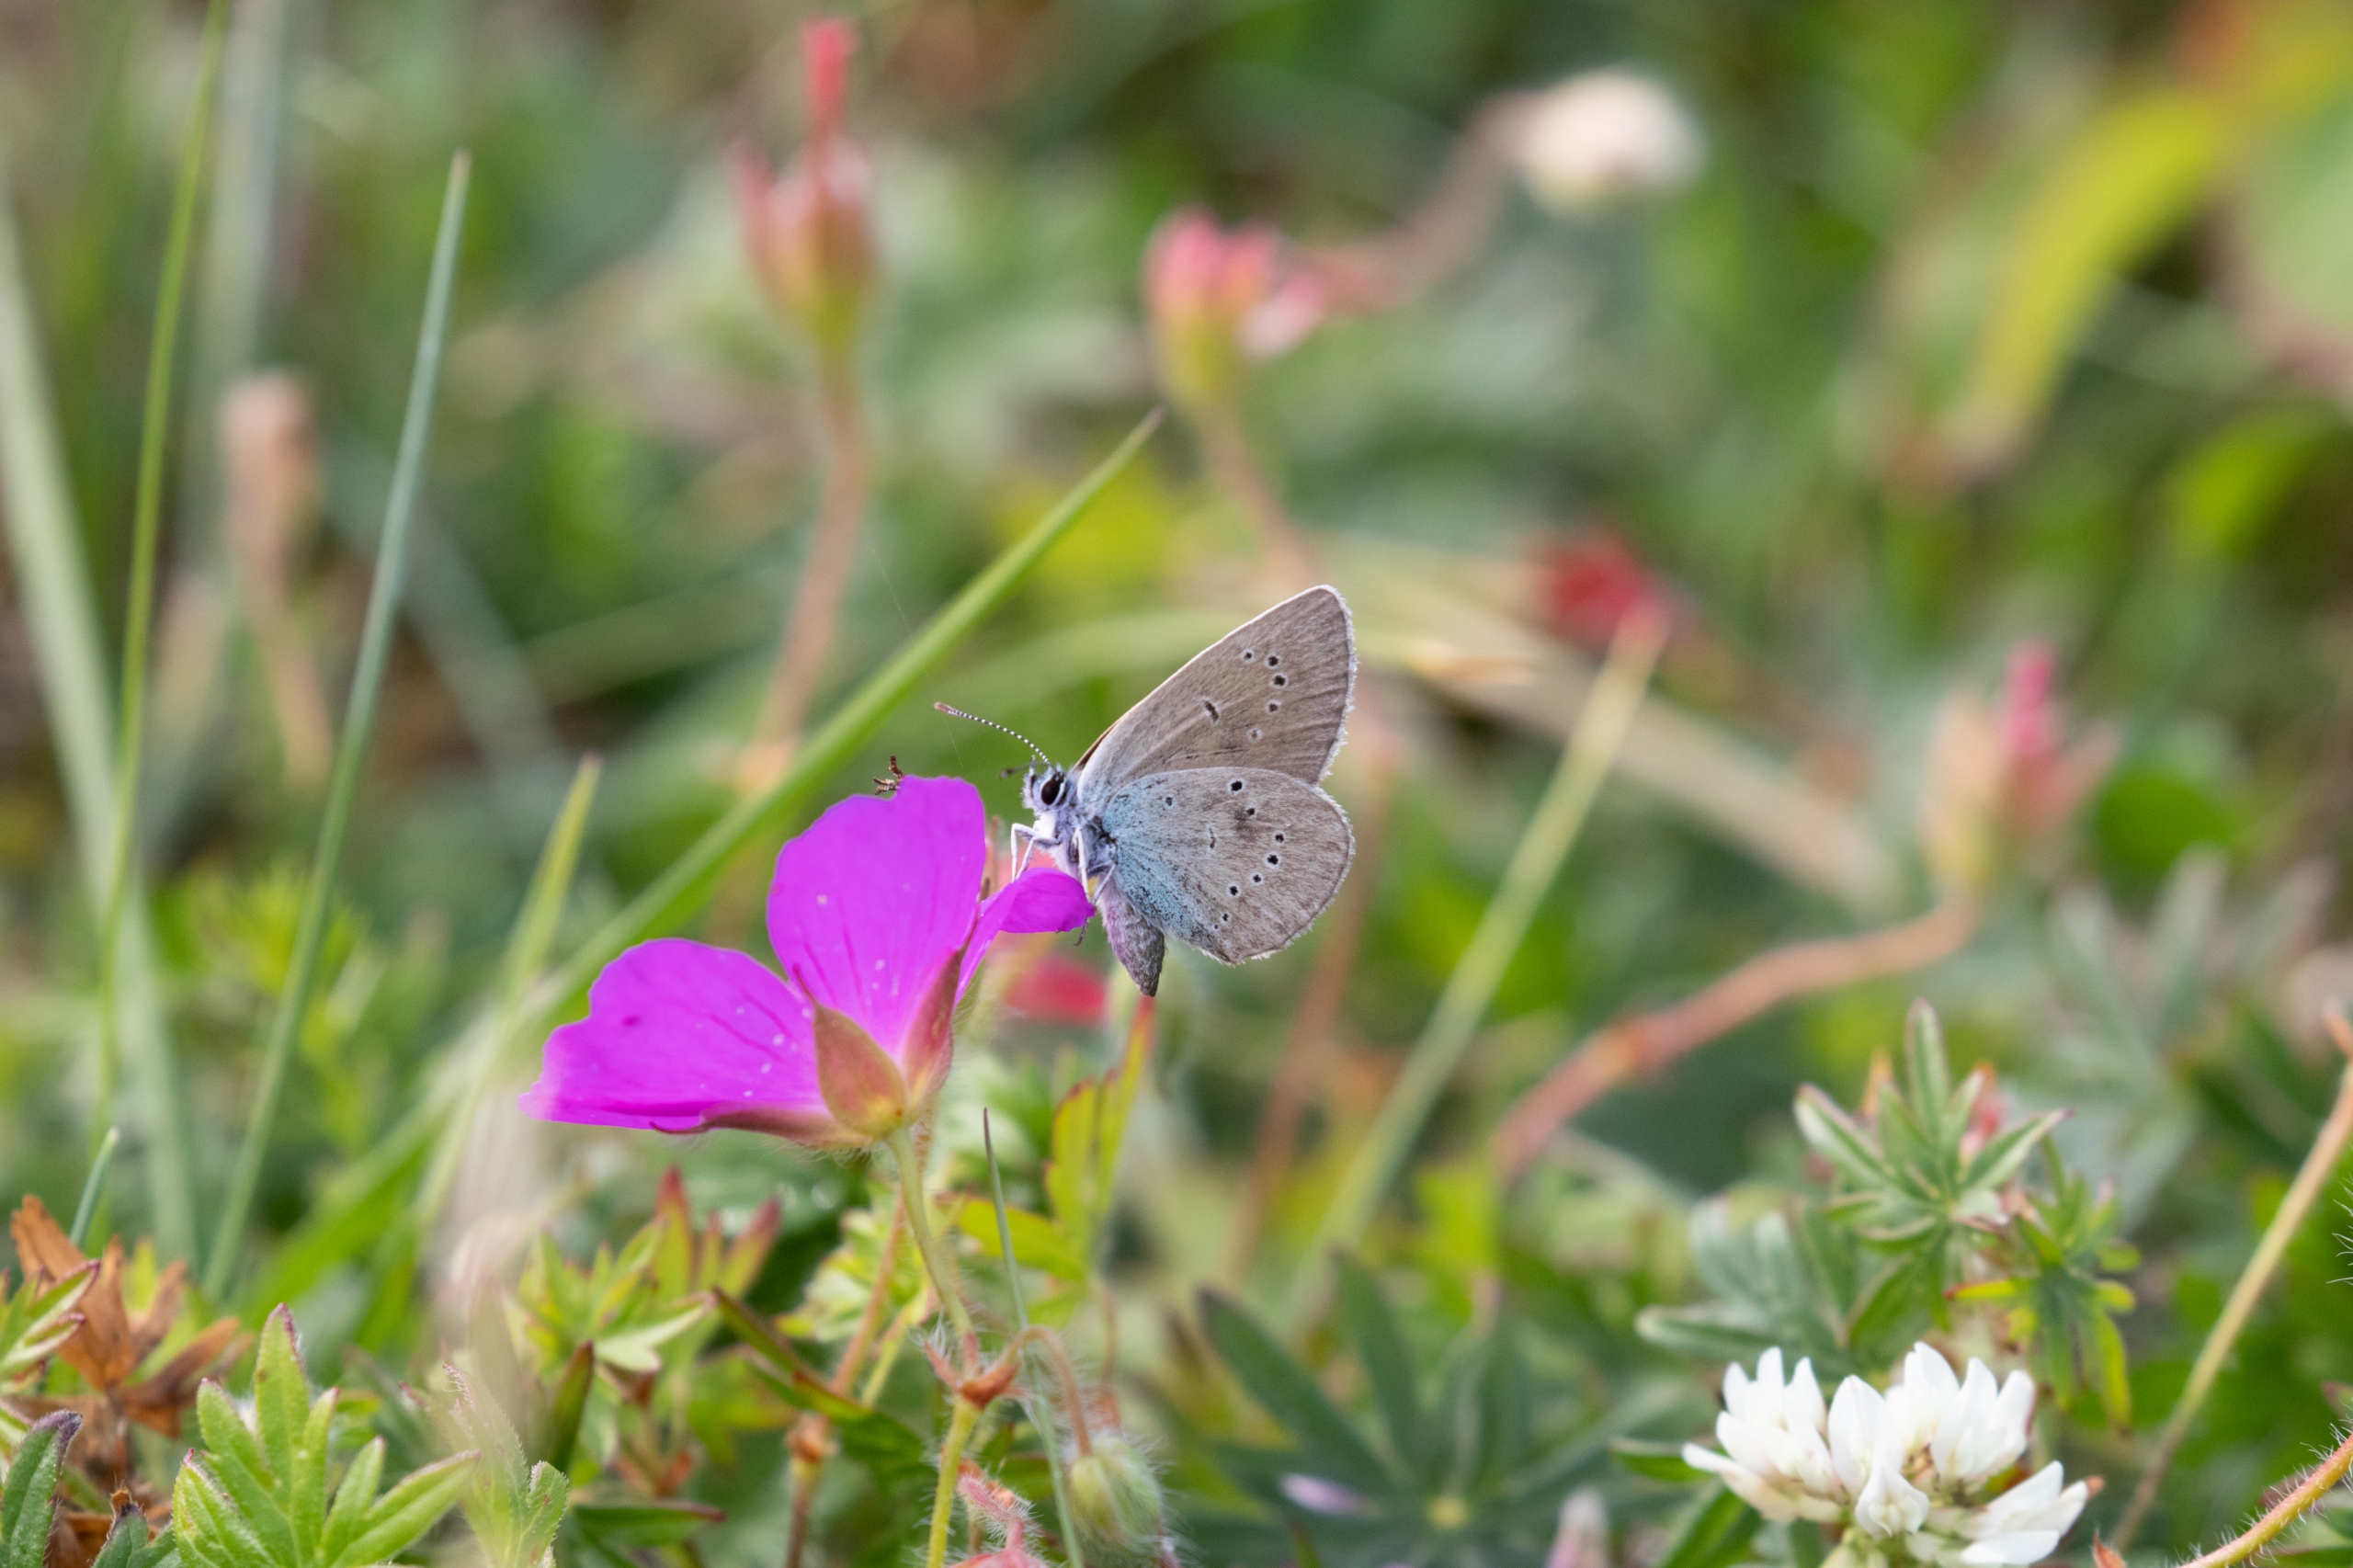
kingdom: Animalia
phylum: Arthropoda
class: Insecta
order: Lepidoptera
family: Lycaenidae
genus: Cyaniris
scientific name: Cyaniris semiargus
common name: Engblåfugl
